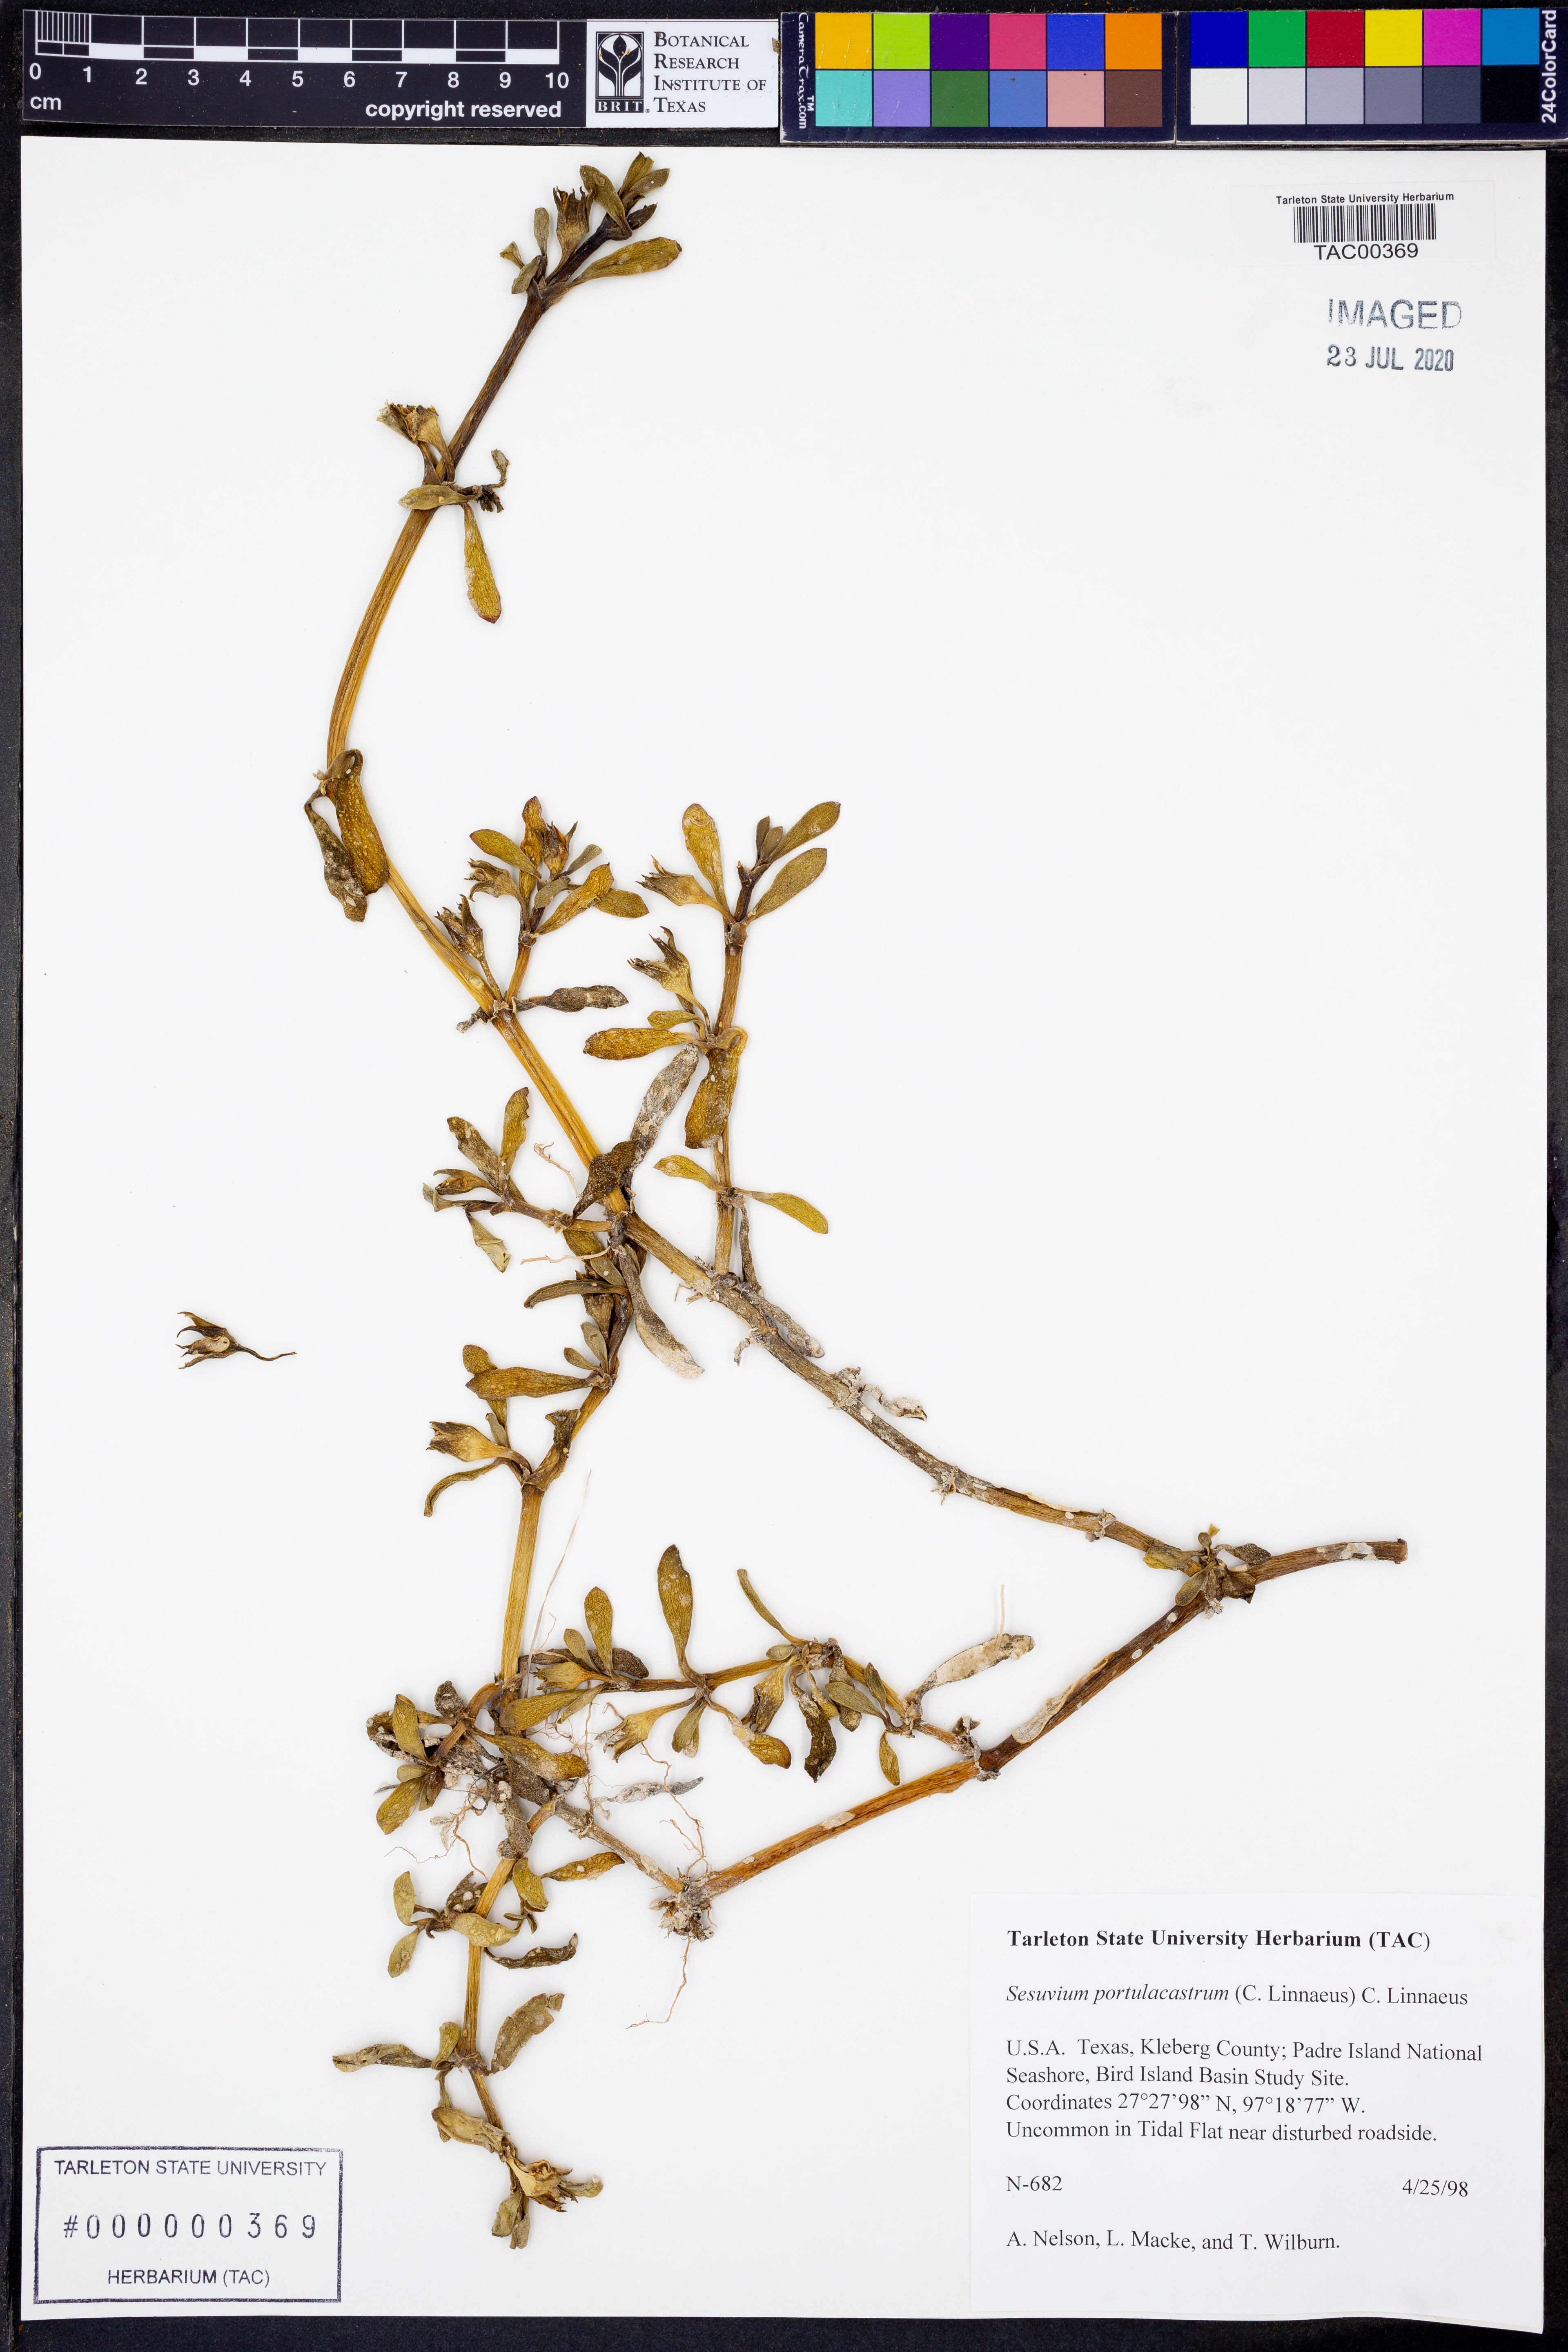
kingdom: Plantae
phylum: Tracheophyta
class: Magnoliopsida
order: Caryophyllales
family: Aizoaceae
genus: Sesuvium
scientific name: Sesuvium portulacastrum
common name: Sea-purslane
